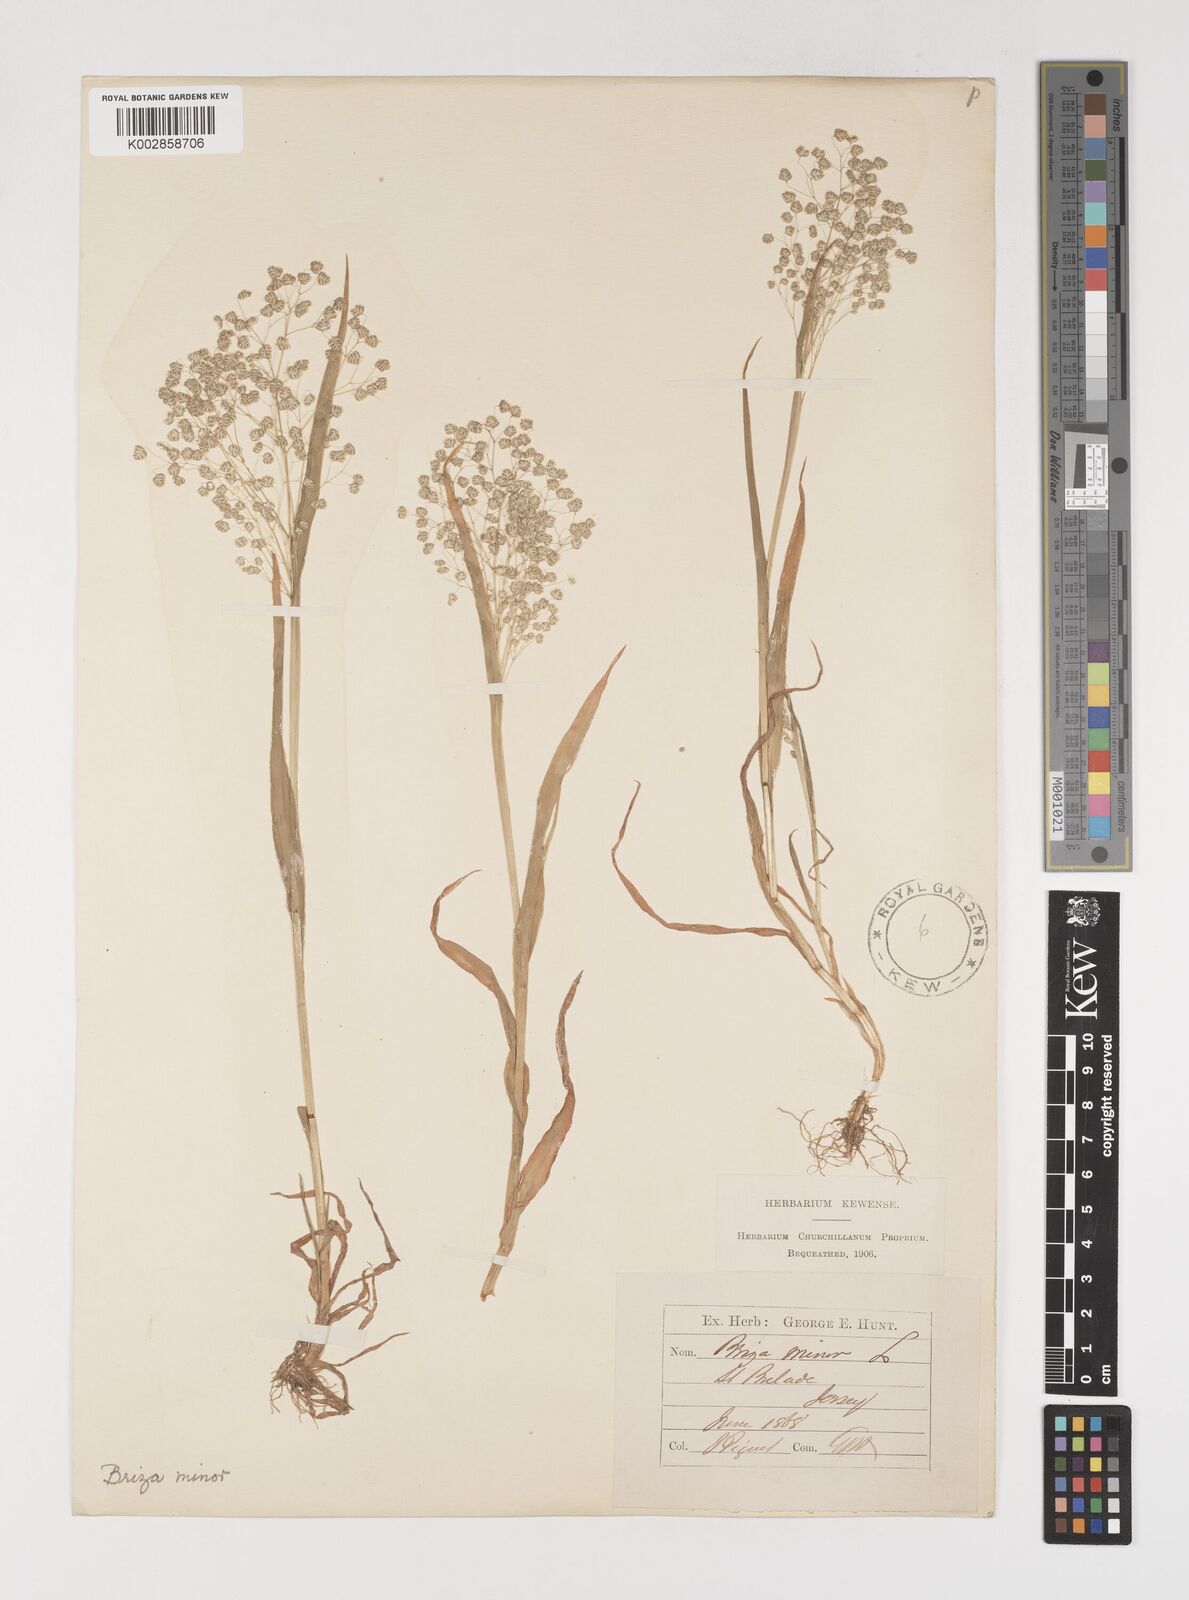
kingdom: Plantae
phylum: Tracheophyta
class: Liliopsida
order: Poales
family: Poaceae
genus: Briza
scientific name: Briza minor
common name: Lesser quaking-grass
